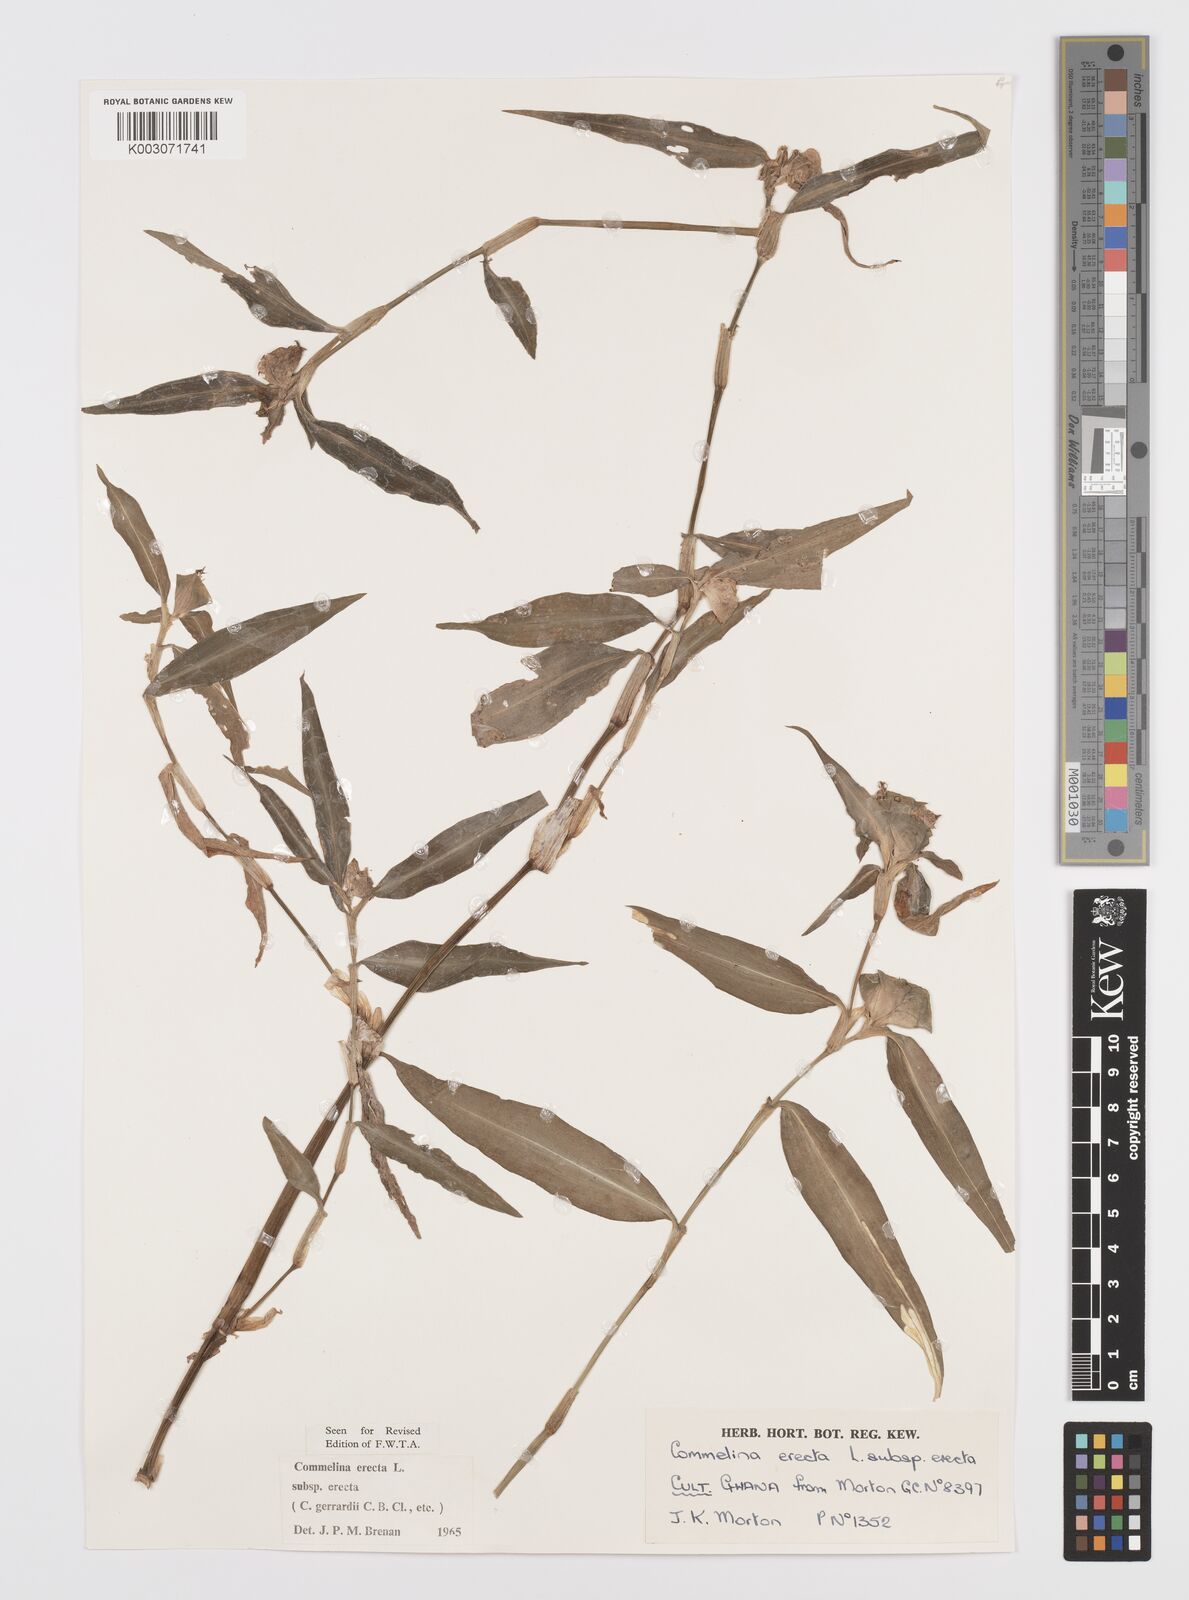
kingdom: Plantae
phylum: Tracheophyta
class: Liliopsida
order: Commelinales
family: Commelinaceae
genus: Commelina
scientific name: Commelina erecta
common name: Blousel blommetjie
